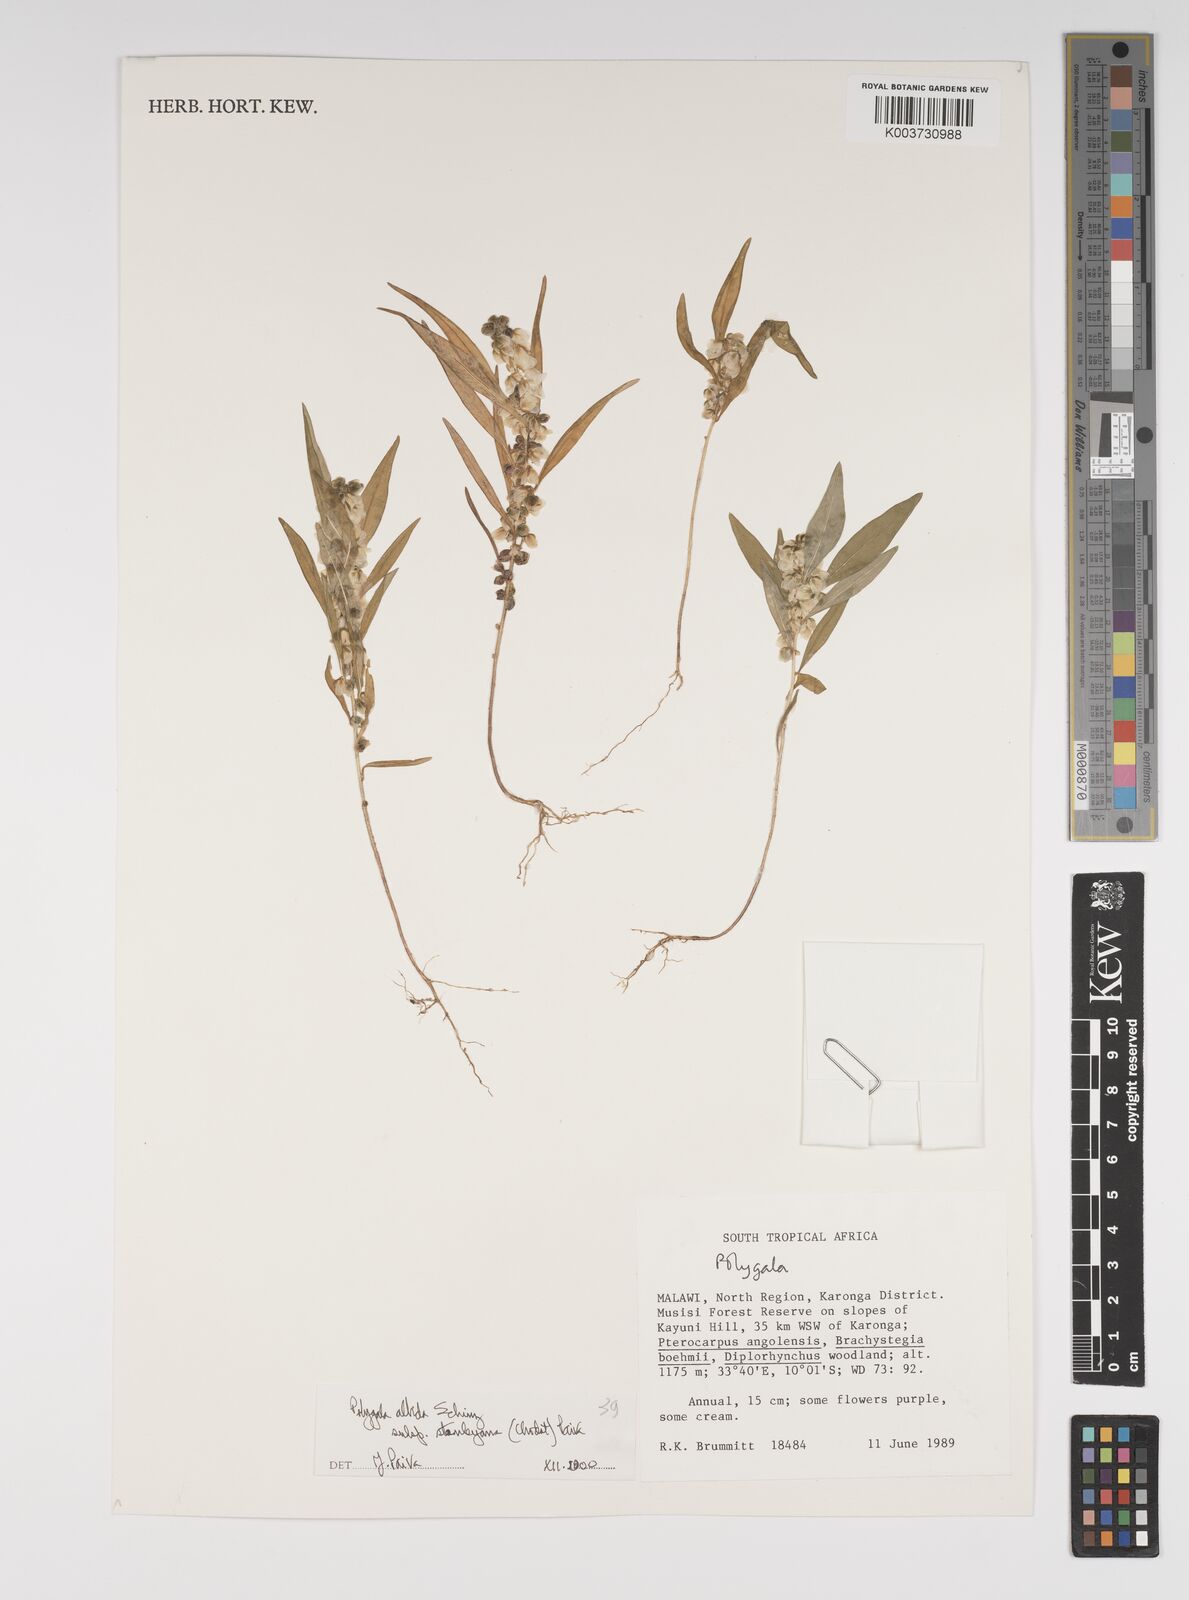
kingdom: Plantae
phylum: Tracheophyta
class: Magnoliopsida
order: Fabales
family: Polygalaceae
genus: Polygala
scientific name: Polygala albida
